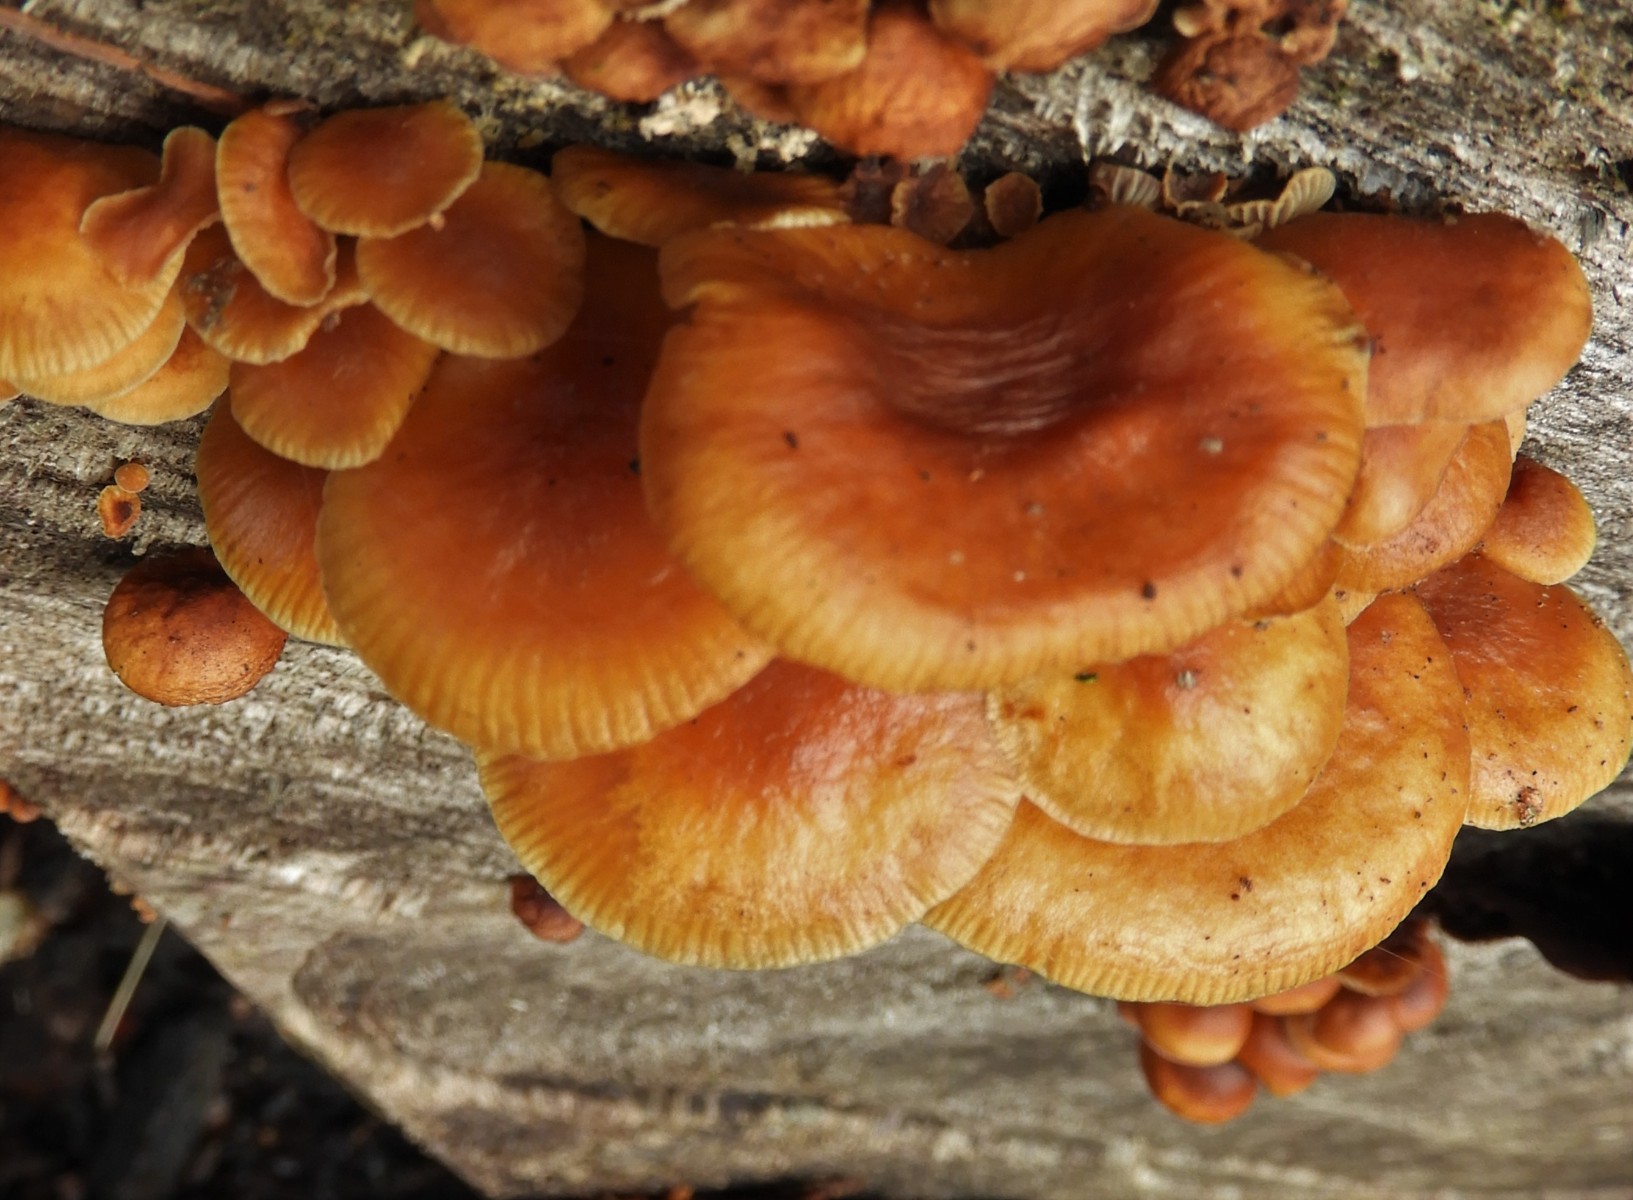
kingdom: Fungi
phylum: Basidiomycota
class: Agaricomycetes
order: Agaricales
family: Physalacriaceae
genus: Flammulina
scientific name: Flammulina velutipes
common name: gul fløjlsfod
